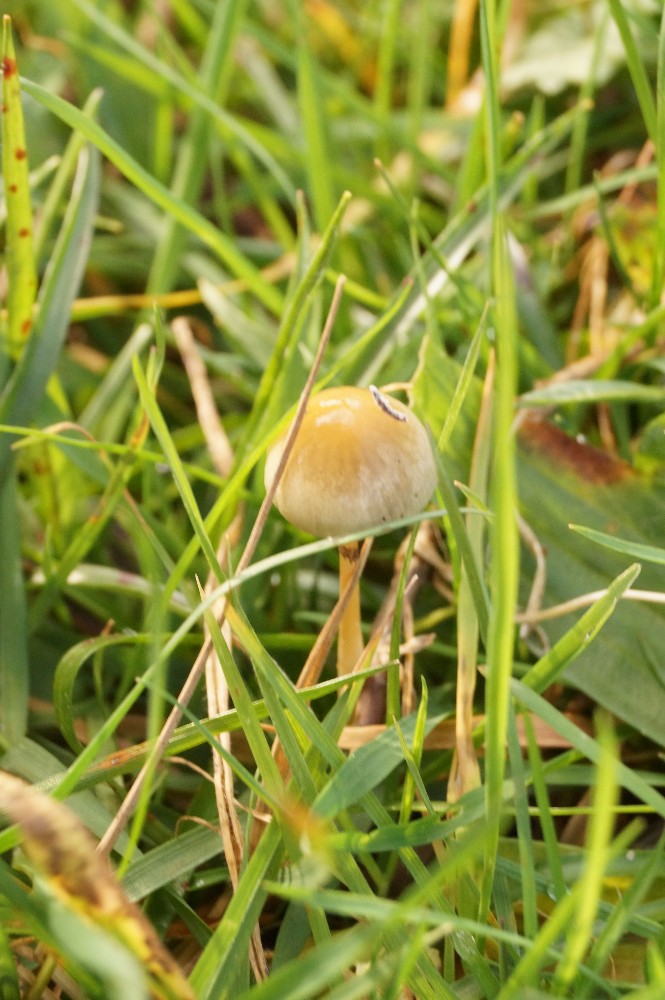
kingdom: Fungi
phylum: Basidiomycota
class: Agaricomycetes
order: Agaricales
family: Strophariaceae
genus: Protostropharia
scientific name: Protostropharia semiglobata
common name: halvkugleformet bredblad
